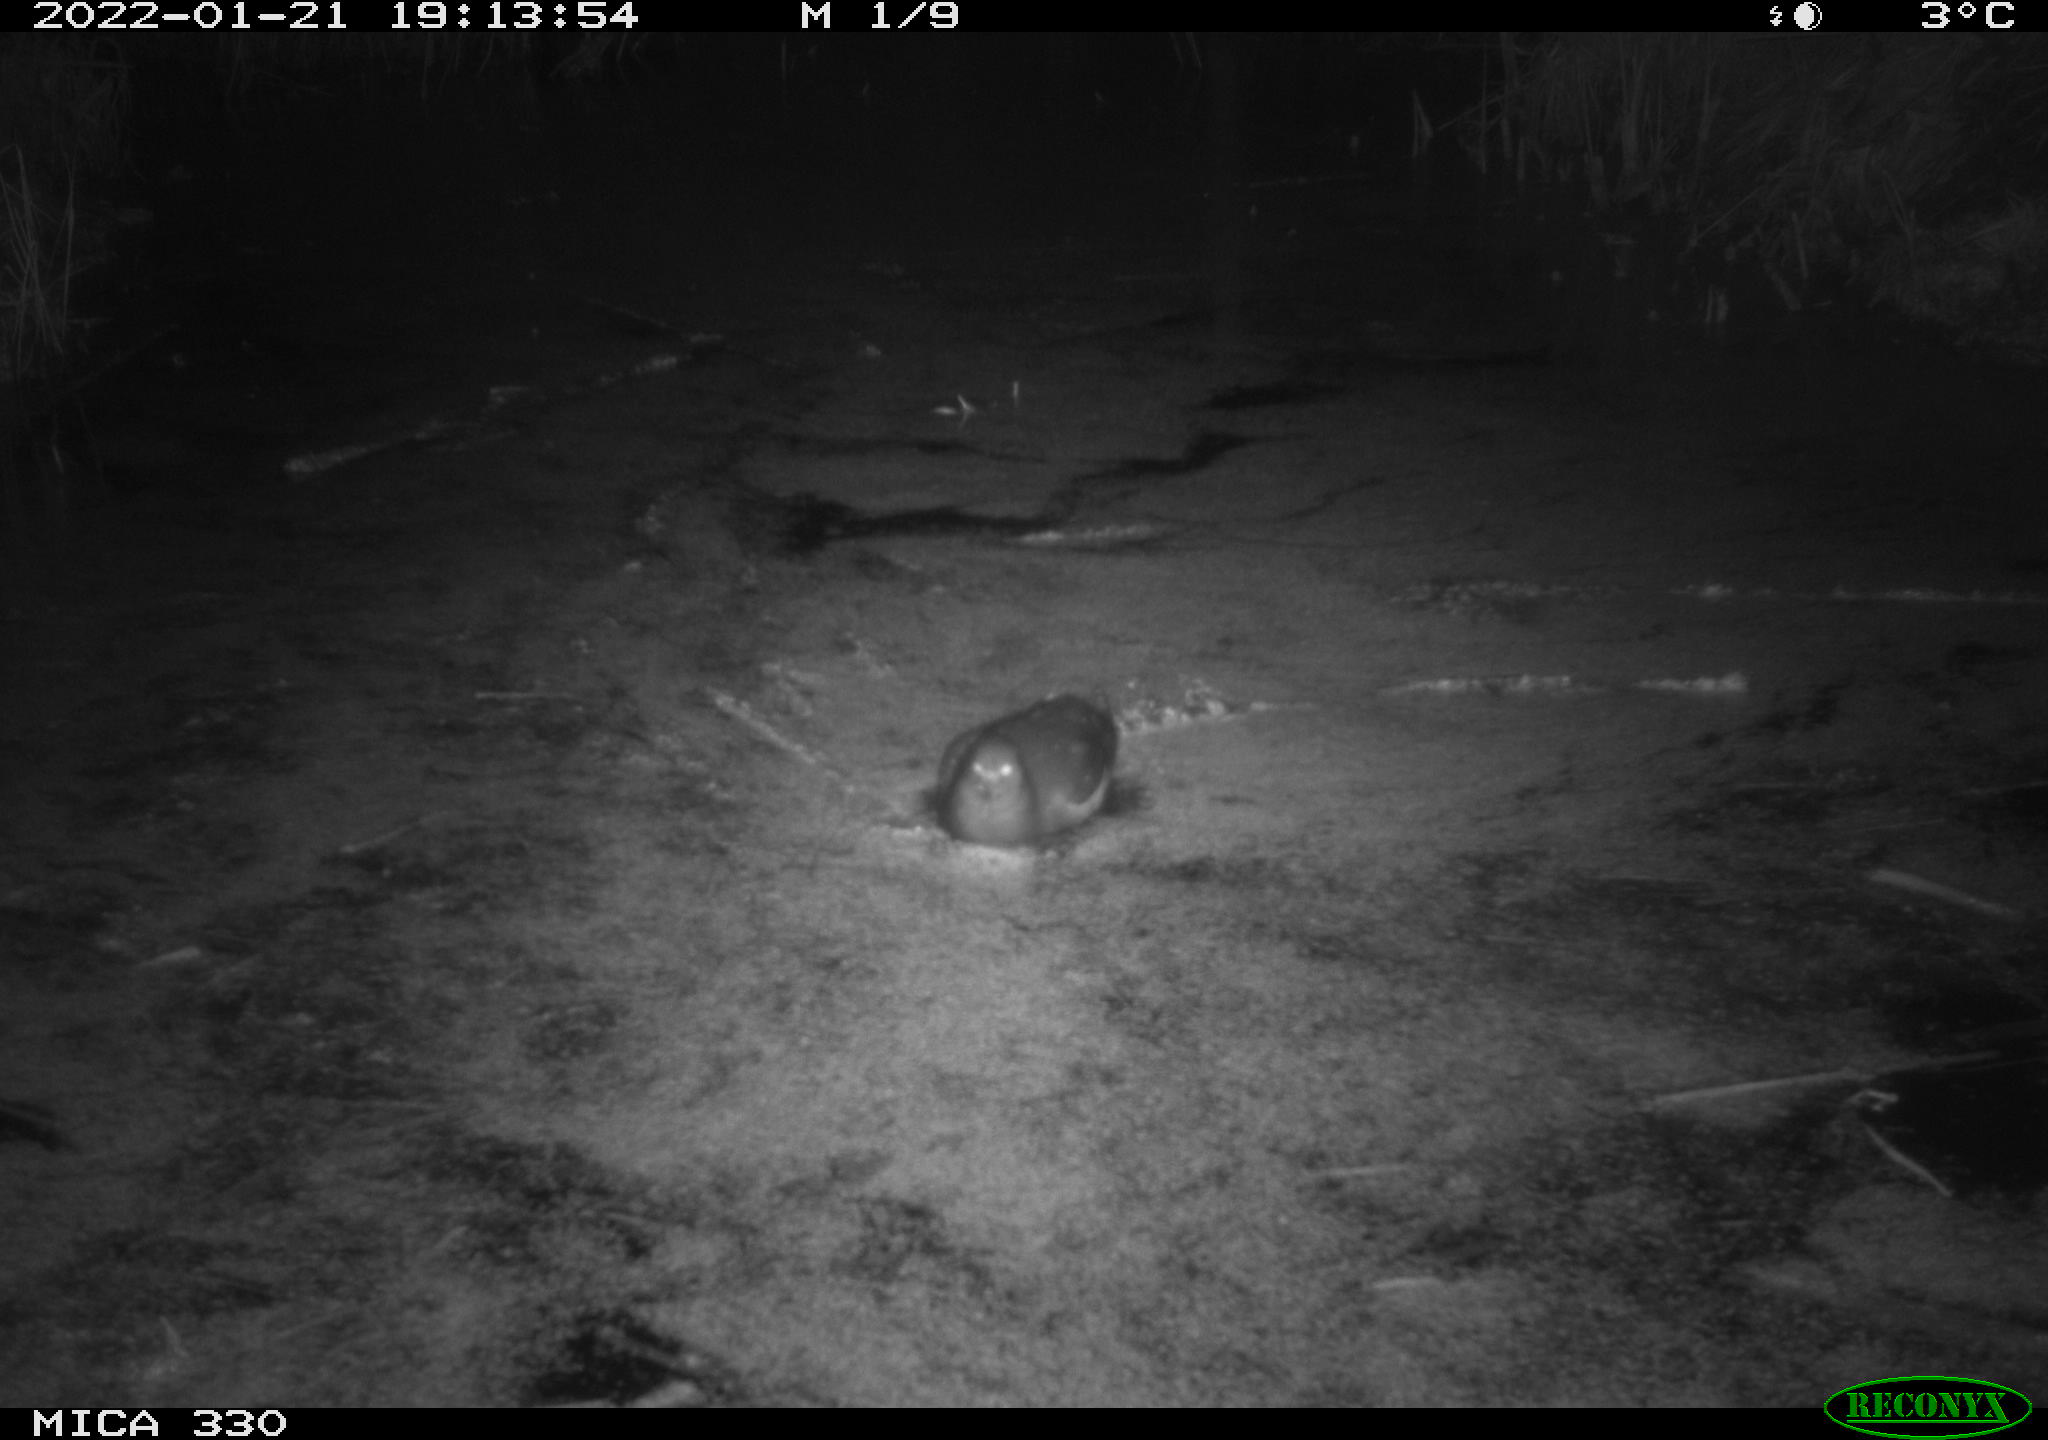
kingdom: Animalia
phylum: Chordata
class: Aves
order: Gruiformes
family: Rallidae
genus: Gallinula
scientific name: Gallinula chloropus
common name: Common moorhen
